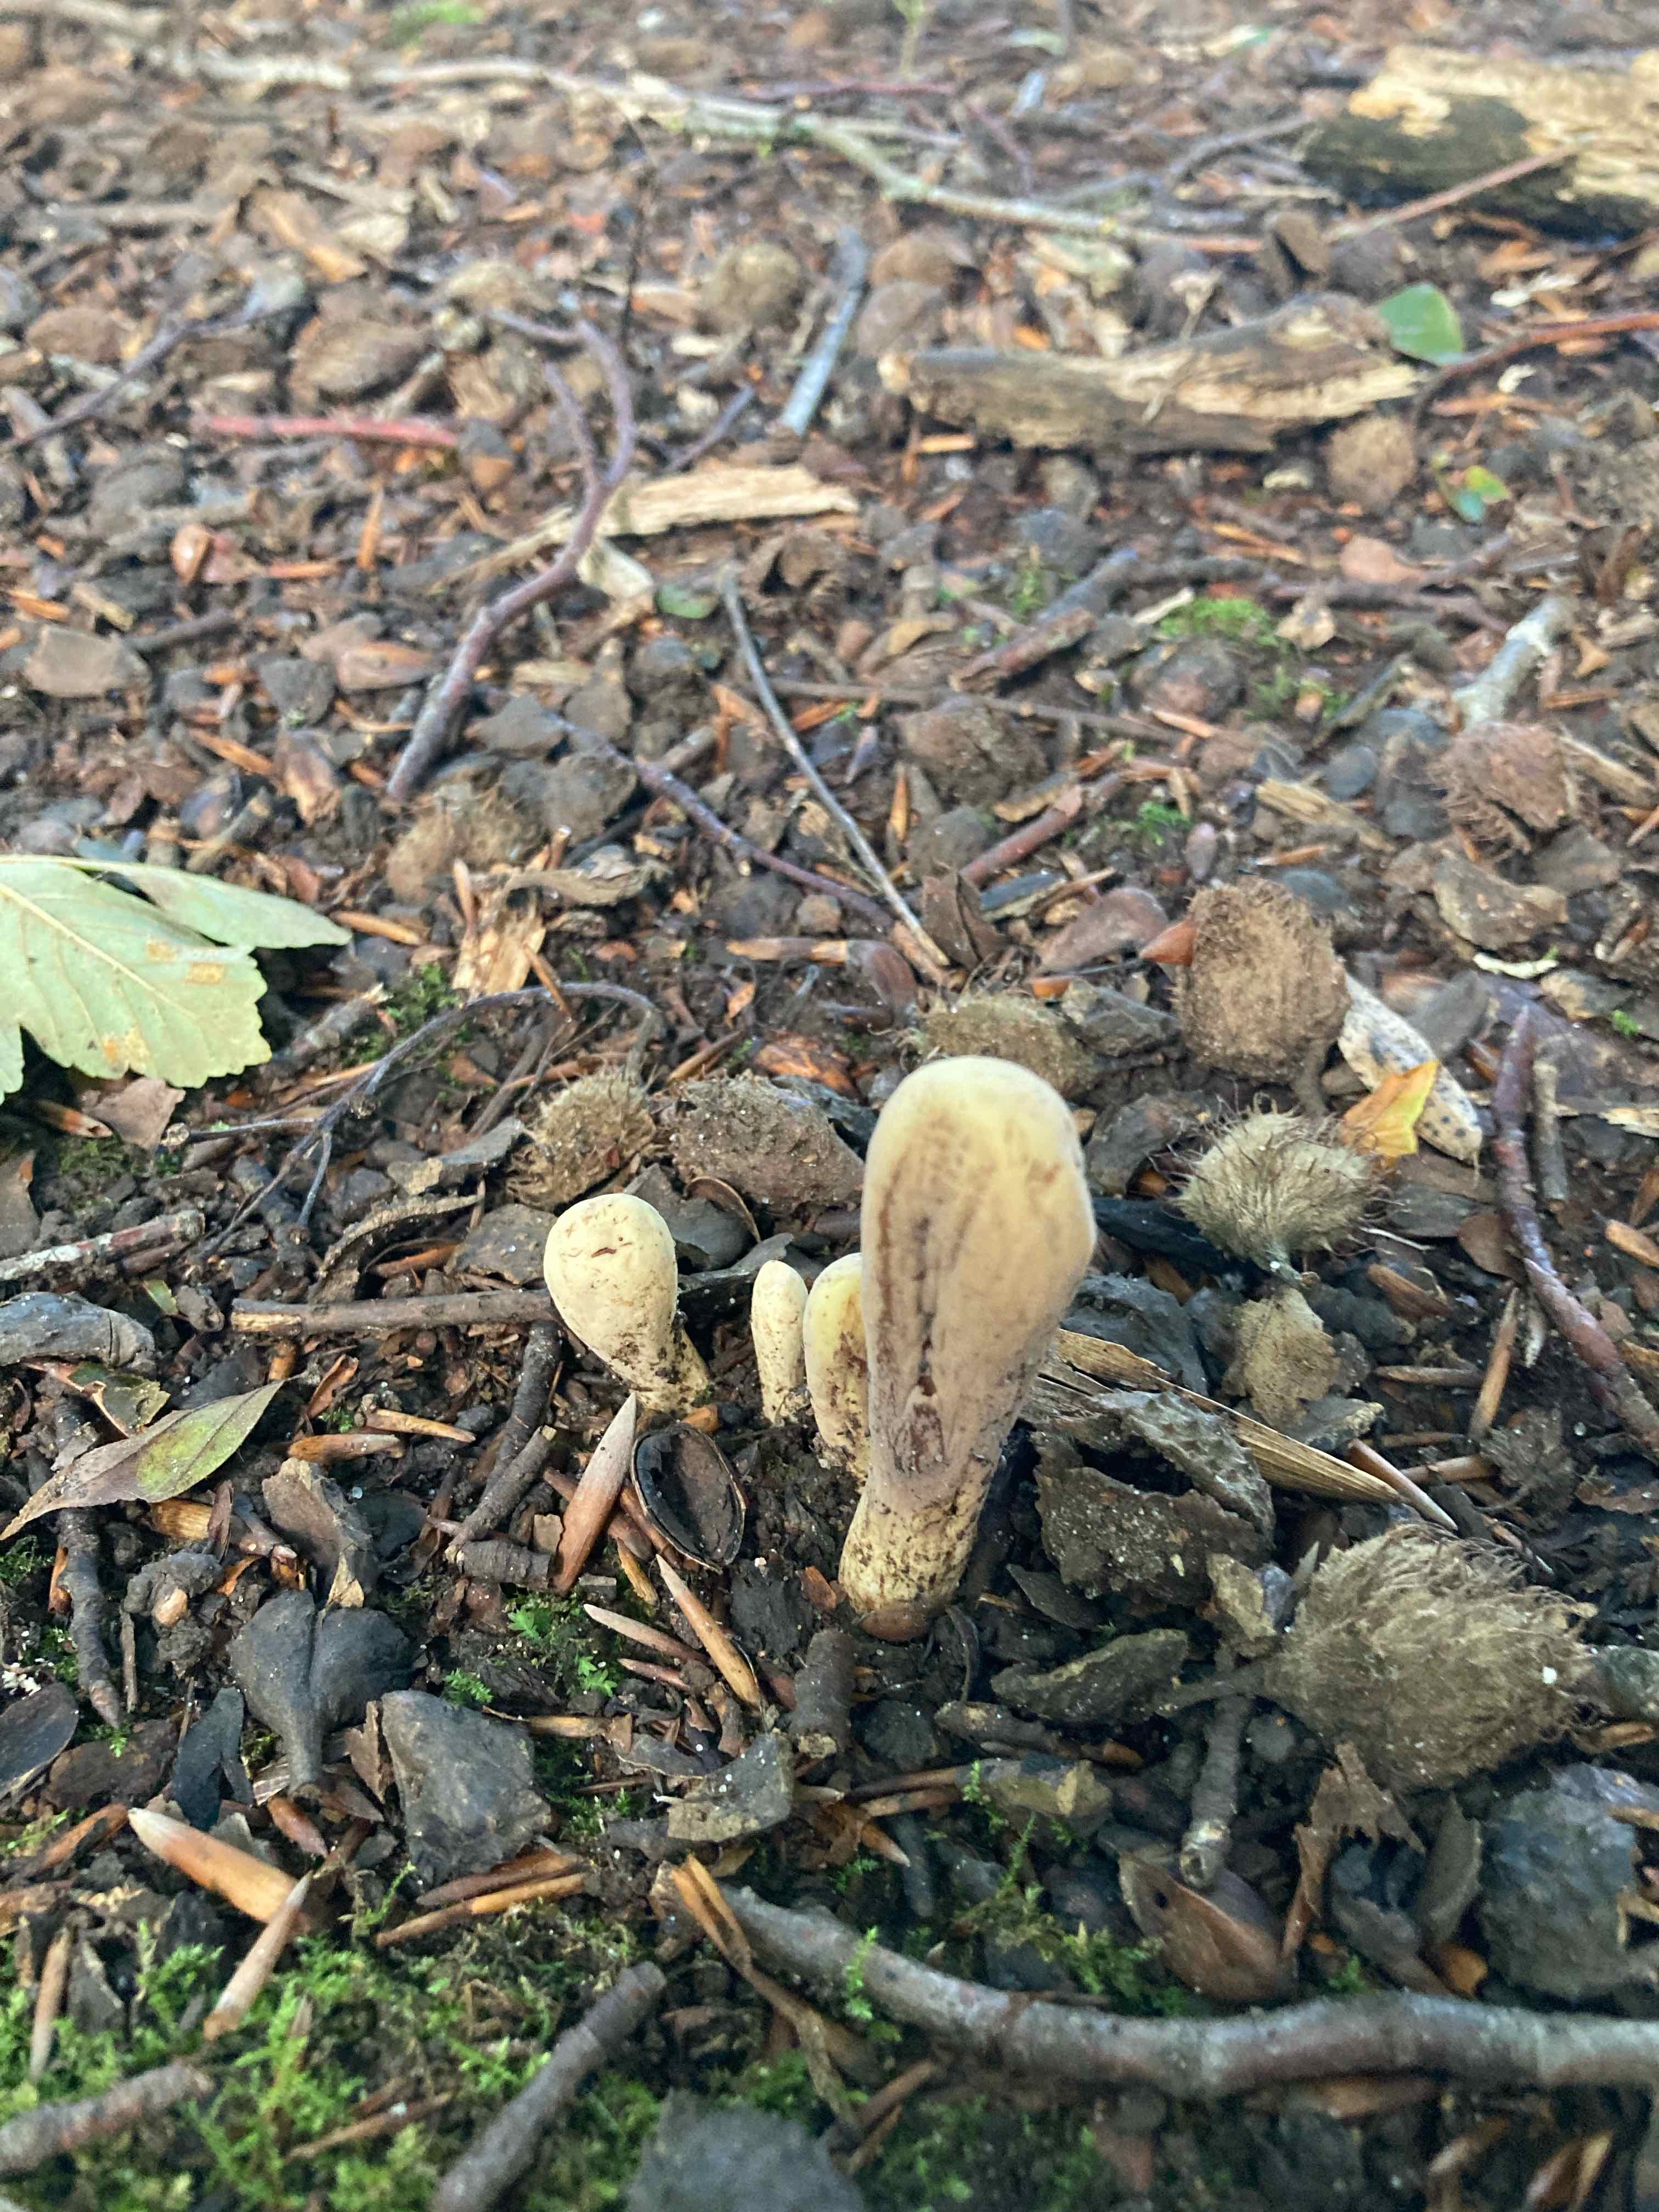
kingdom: Fungi
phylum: Basidiomycota
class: Agaricomycetes
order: Gomphales
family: Clavariadelphaceae
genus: Clavariadelphus
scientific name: Clavariadelphus pistillaris
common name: herkules-kæmpekølle
